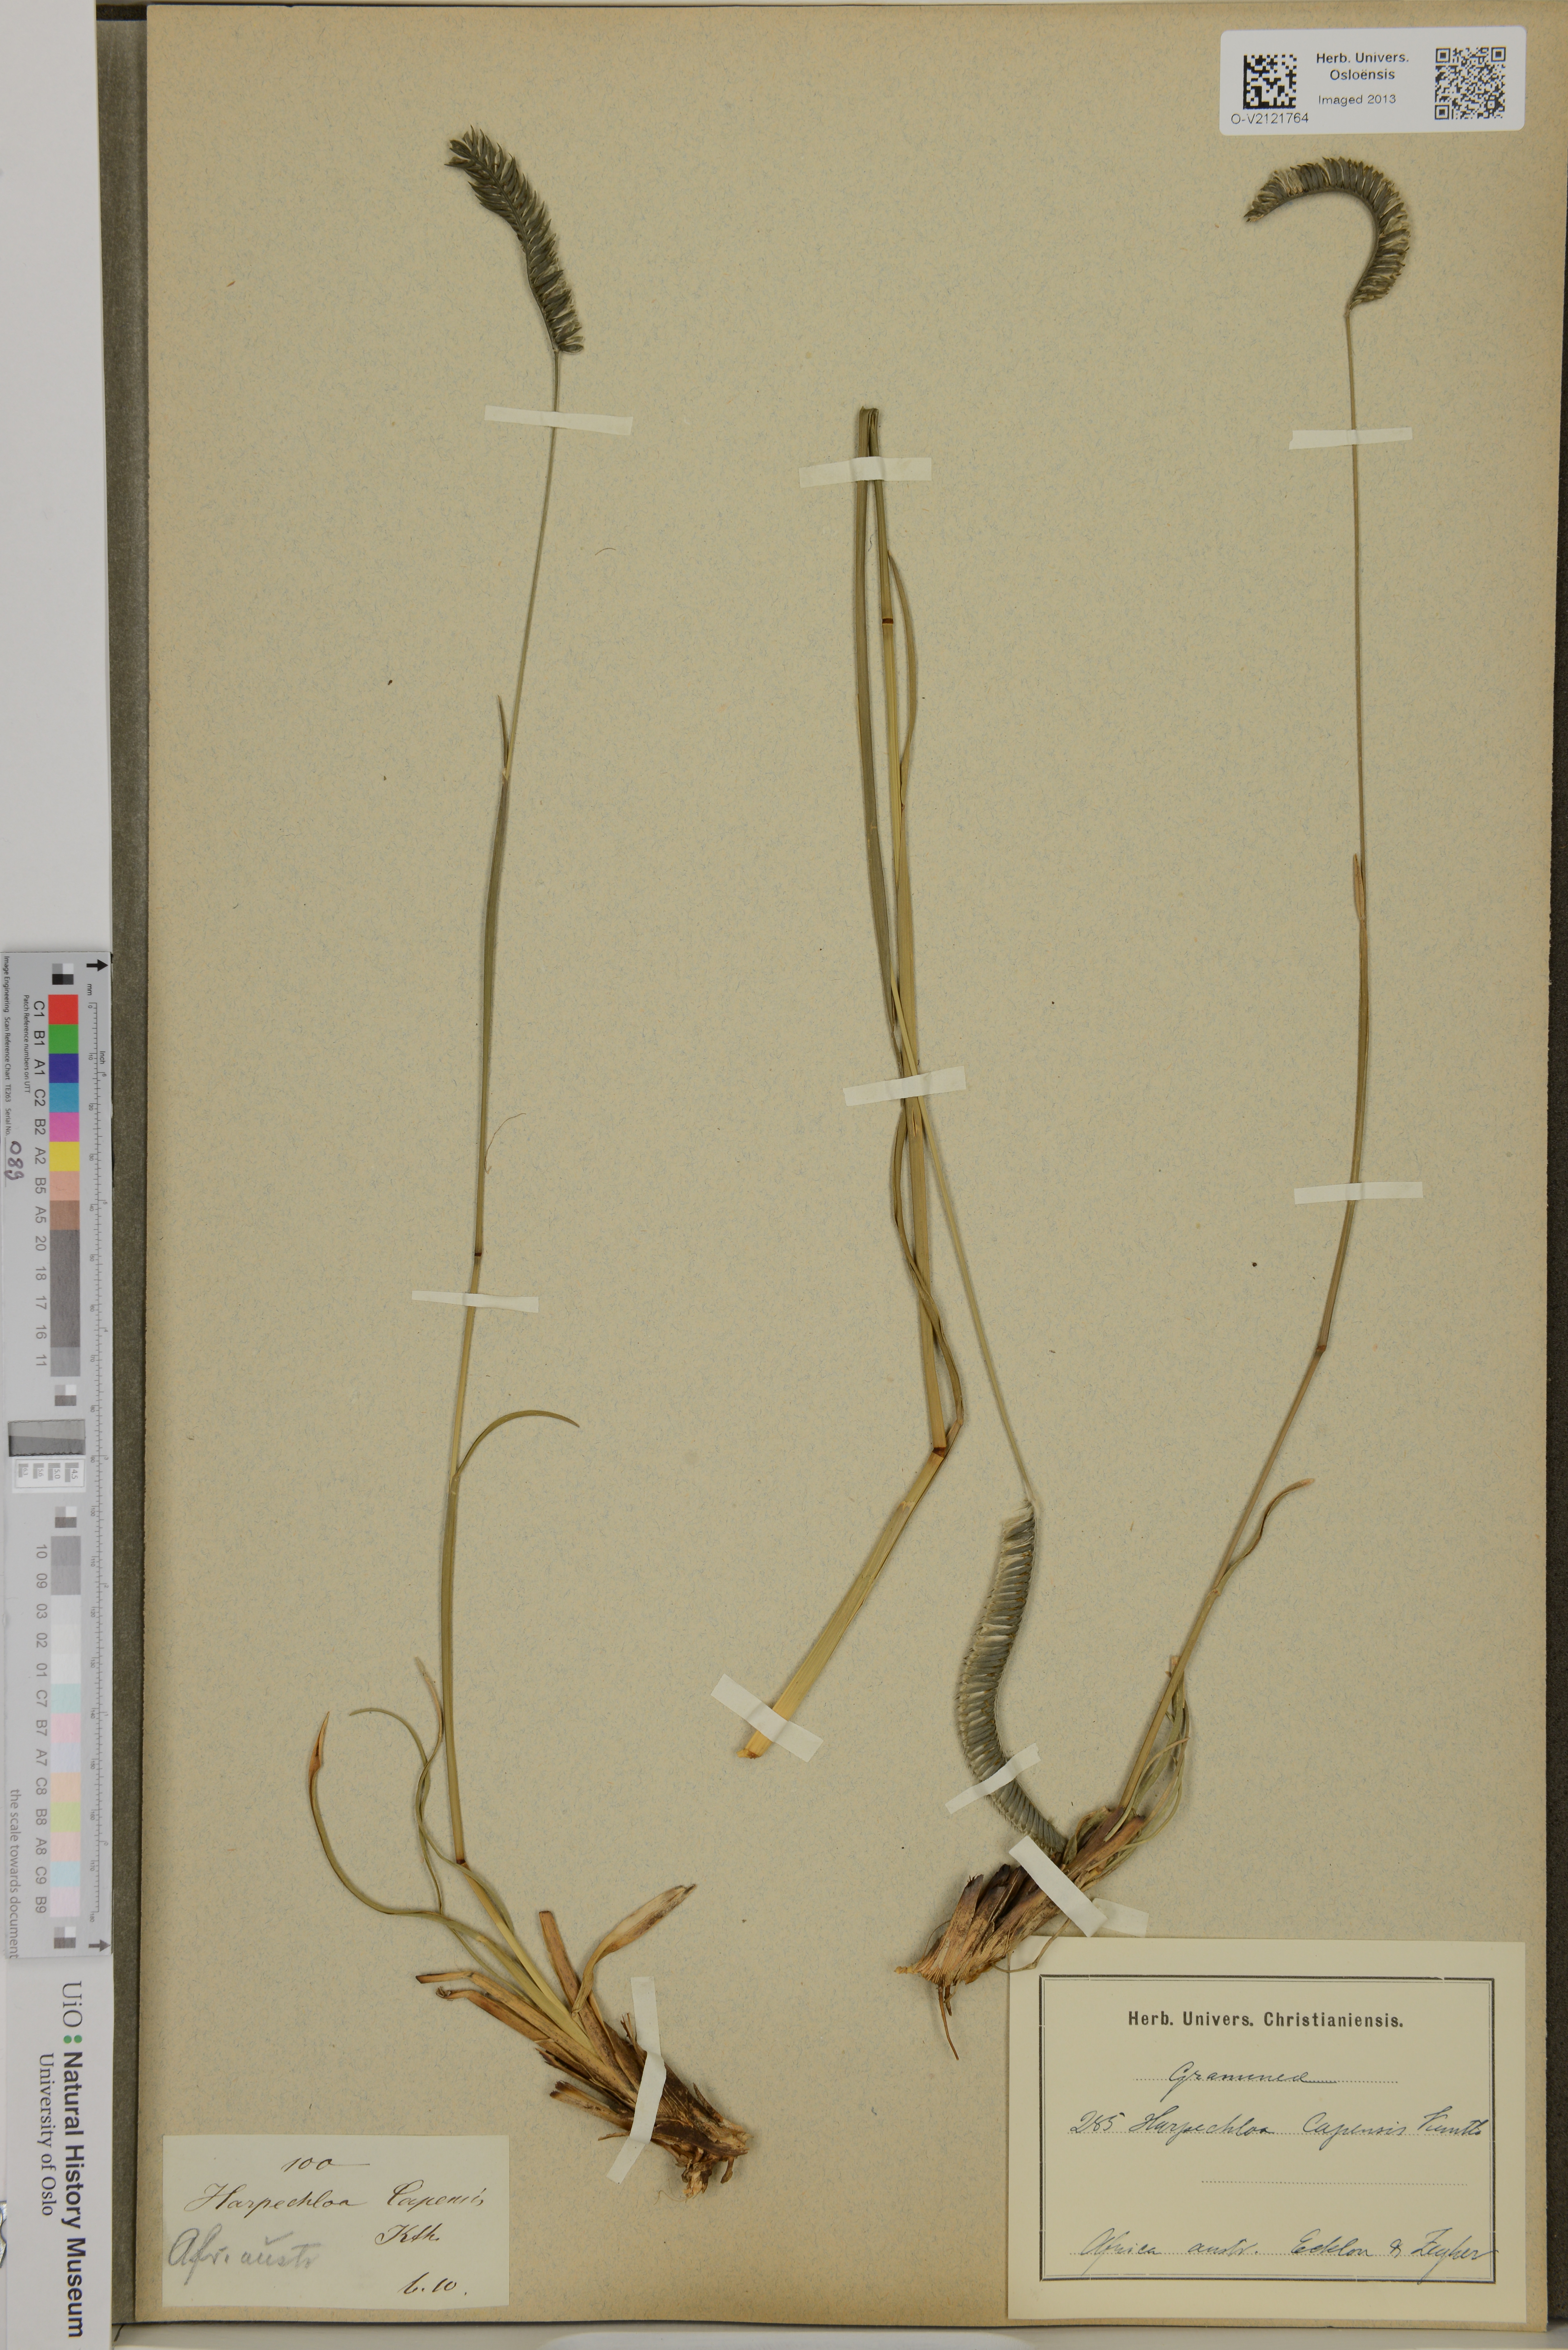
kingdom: Plantae
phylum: Tracheophyta
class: Liliopsida
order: Poales
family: Poaceae
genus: Harpochloa
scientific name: Harpochloa falx
